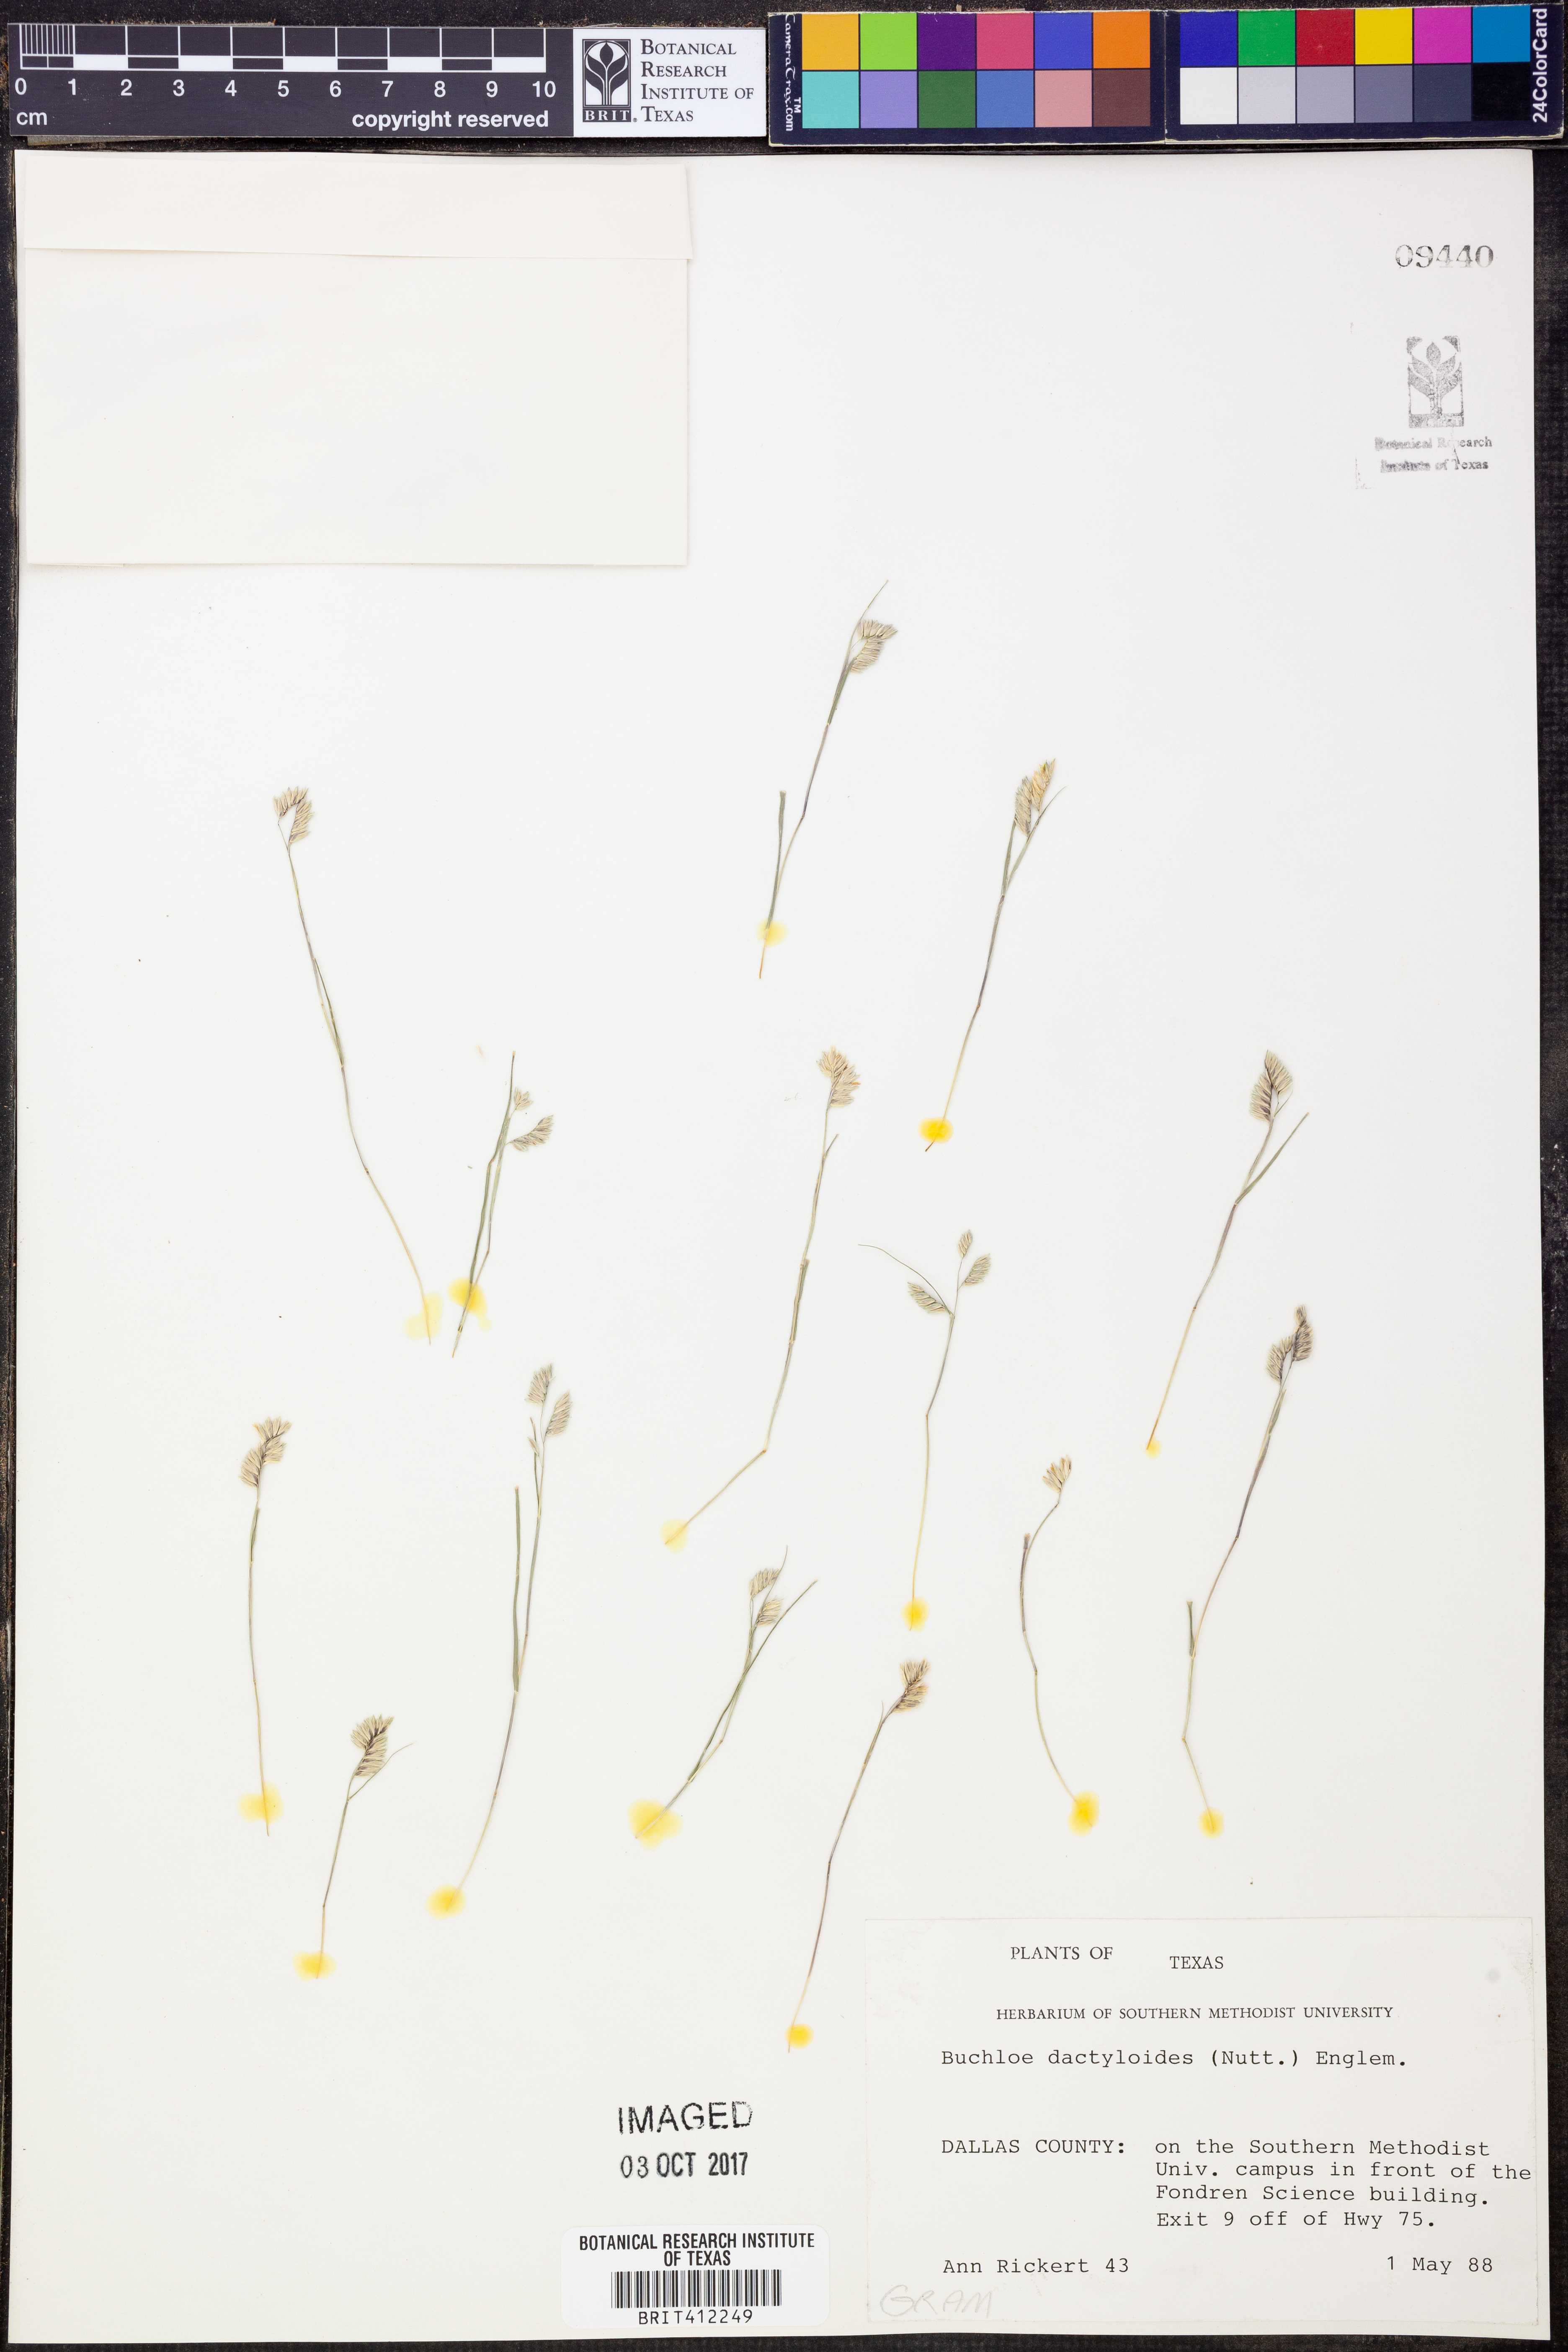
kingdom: Plantae
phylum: Tracheophyta
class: Liliopsida
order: Poales
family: Poaceae
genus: Bouteloua
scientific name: Bouteloua dactyloides
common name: Buffalo grass
